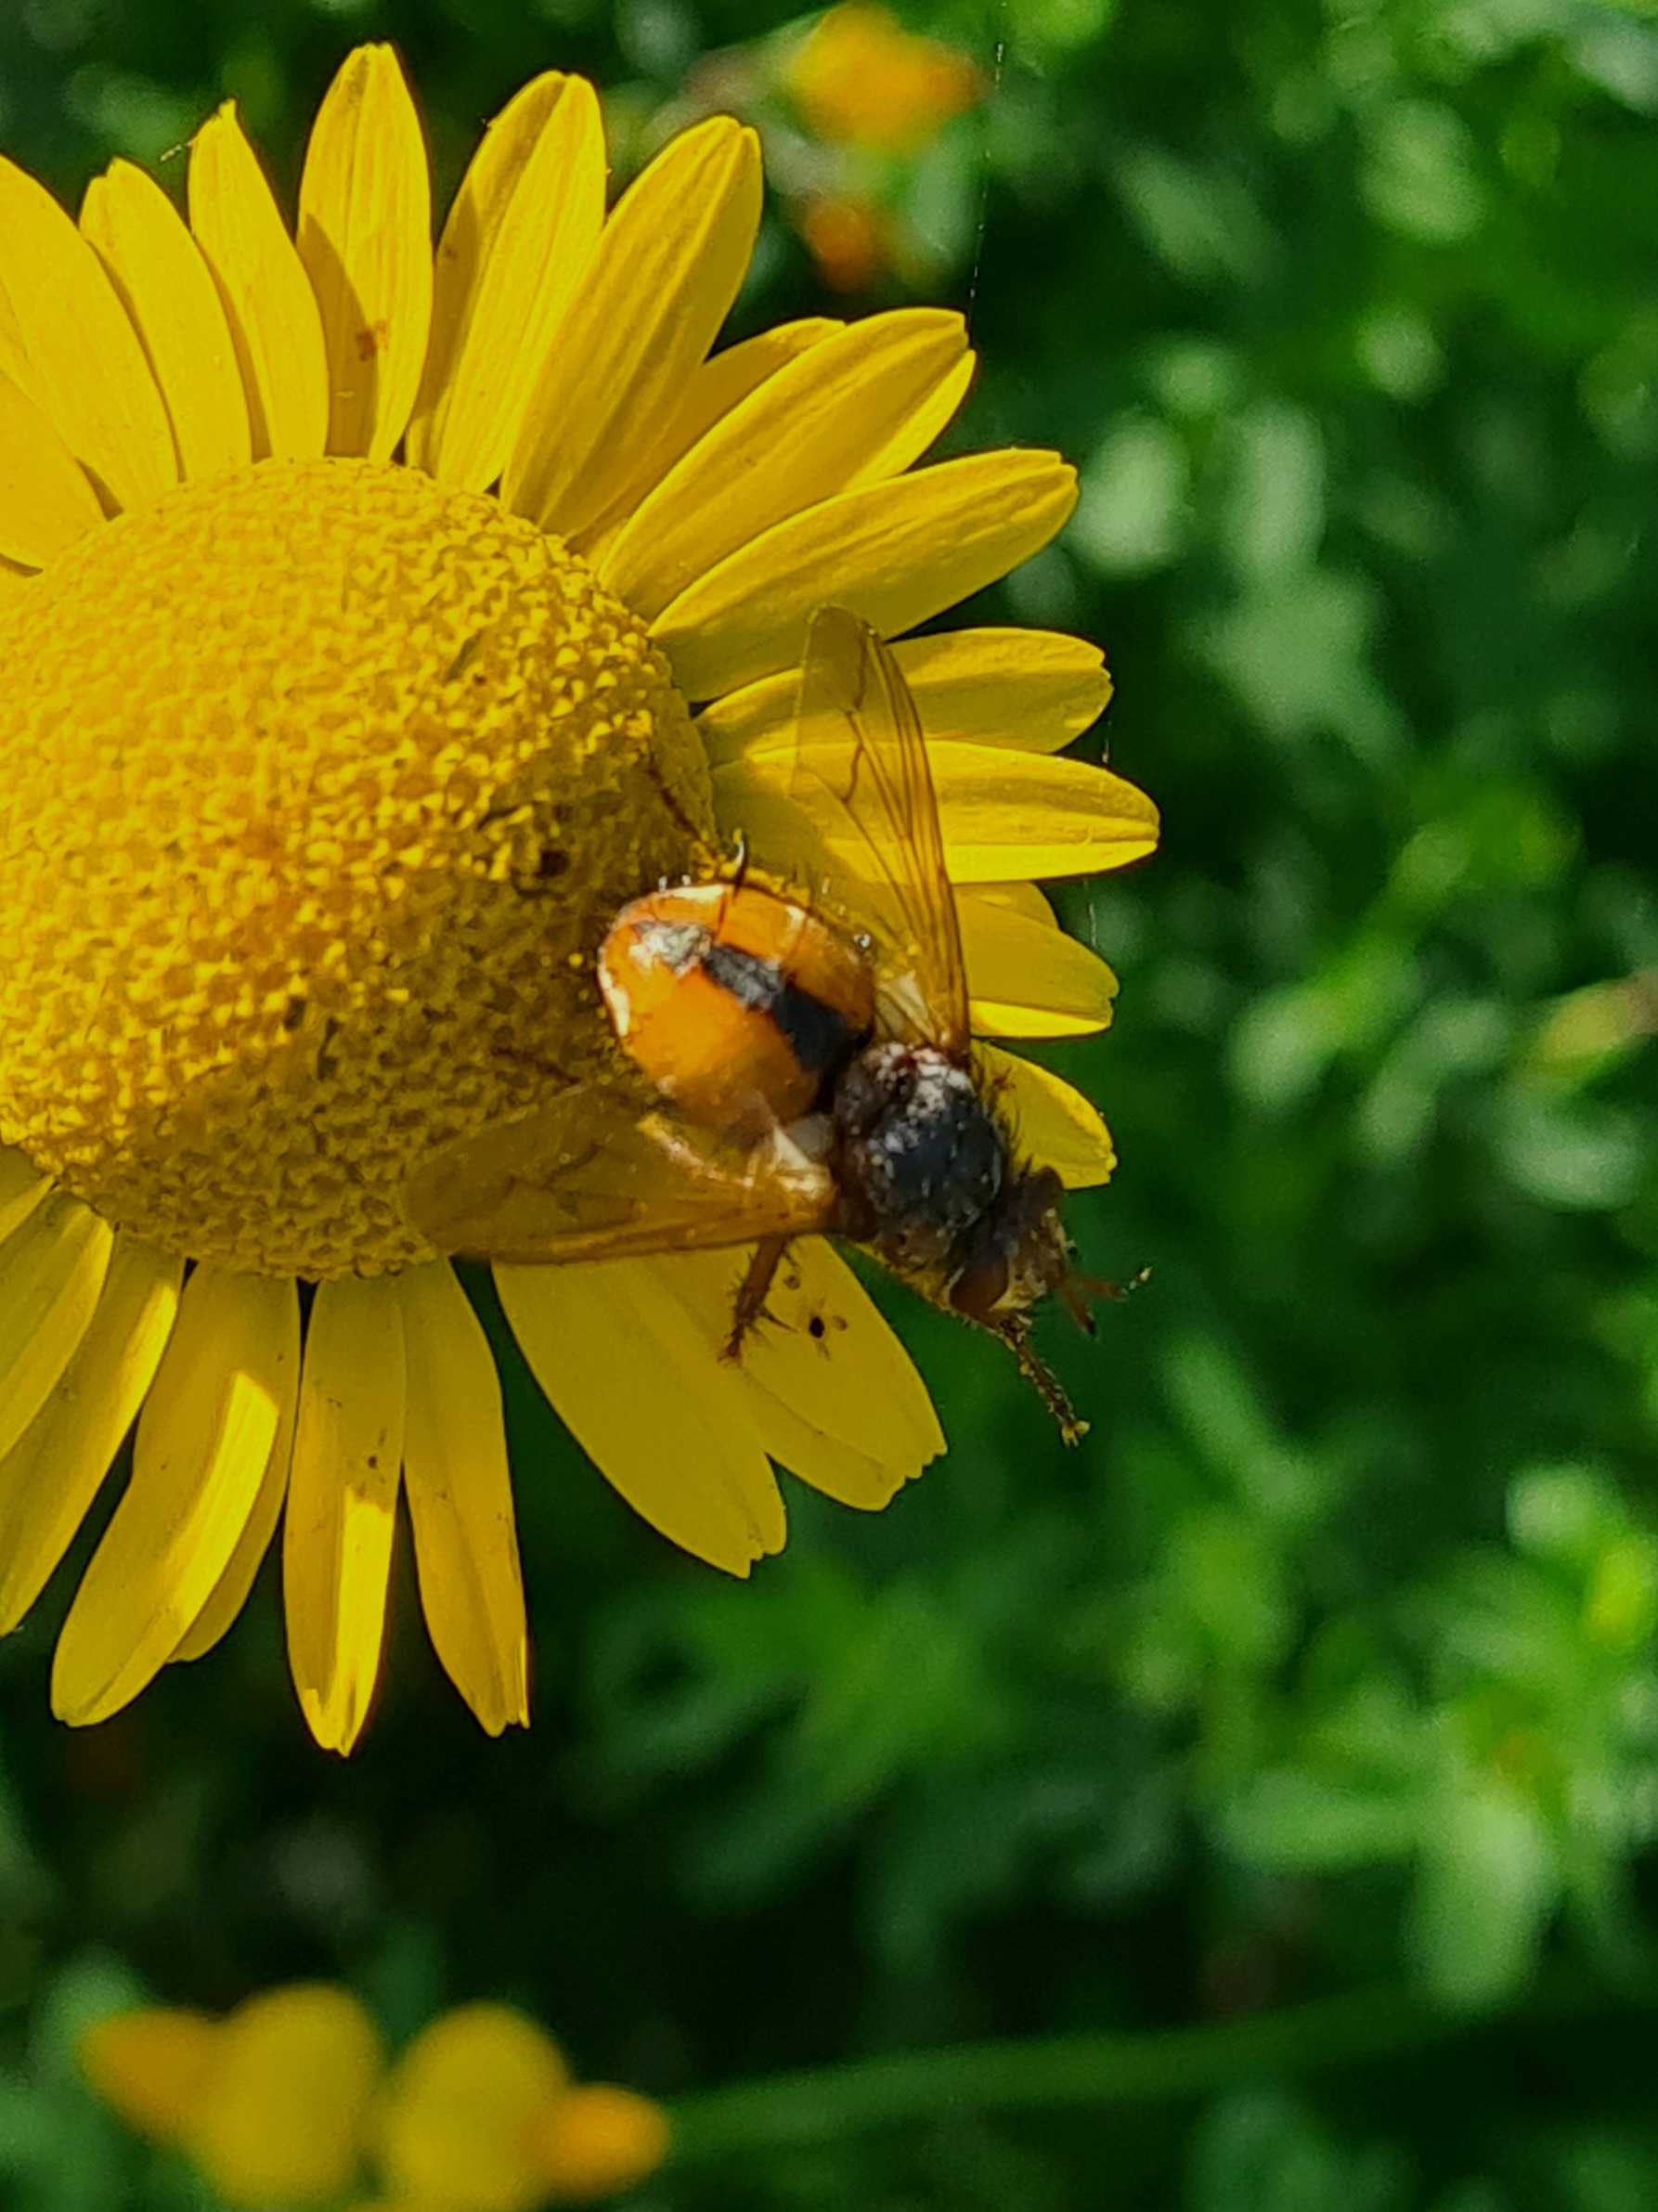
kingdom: Animalia
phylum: Arthropoda
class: Insecta
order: Diptera
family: Tachinidae
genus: Tachina
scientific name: Tachina fera
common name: Mellemfluen oskar
